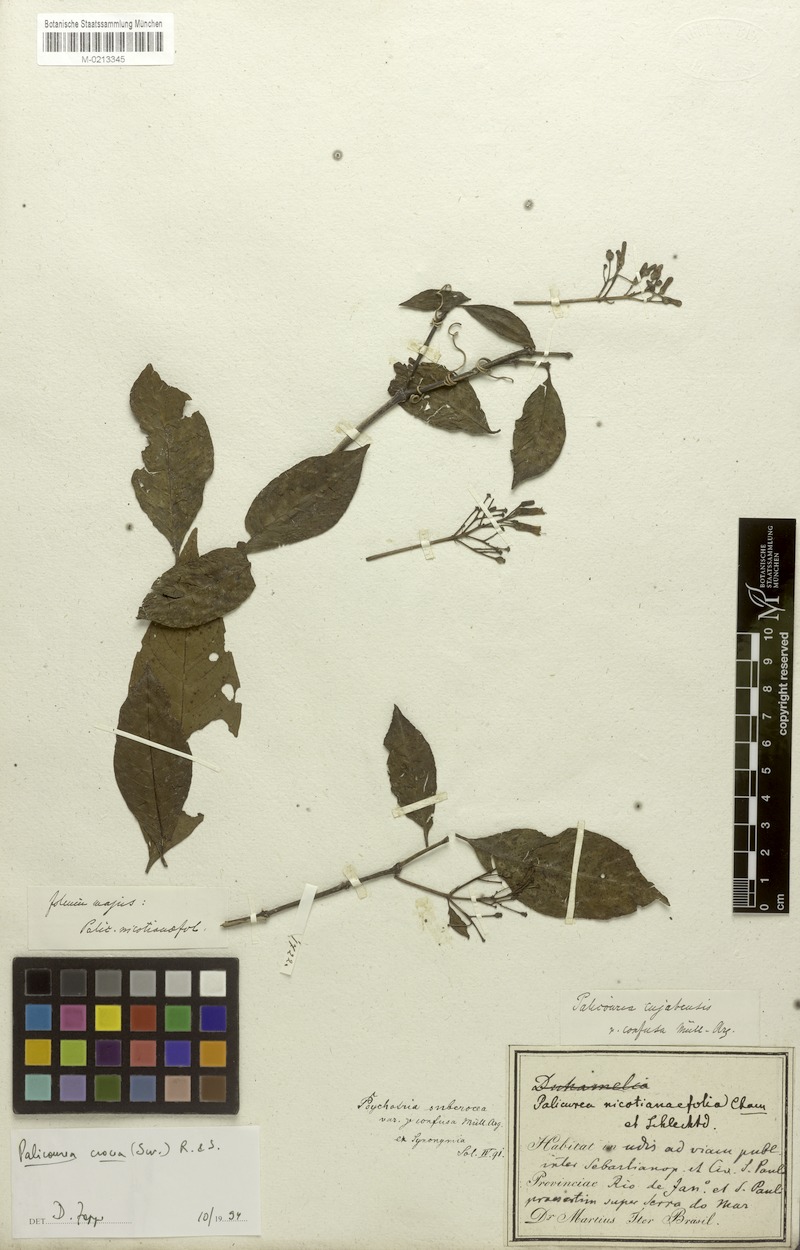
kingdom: Plantae
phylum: Tracheophyta
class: Magnoliopsida
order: Gentianales
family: Rubiaceae
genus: Palicourea
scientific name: Palicourea crocea
